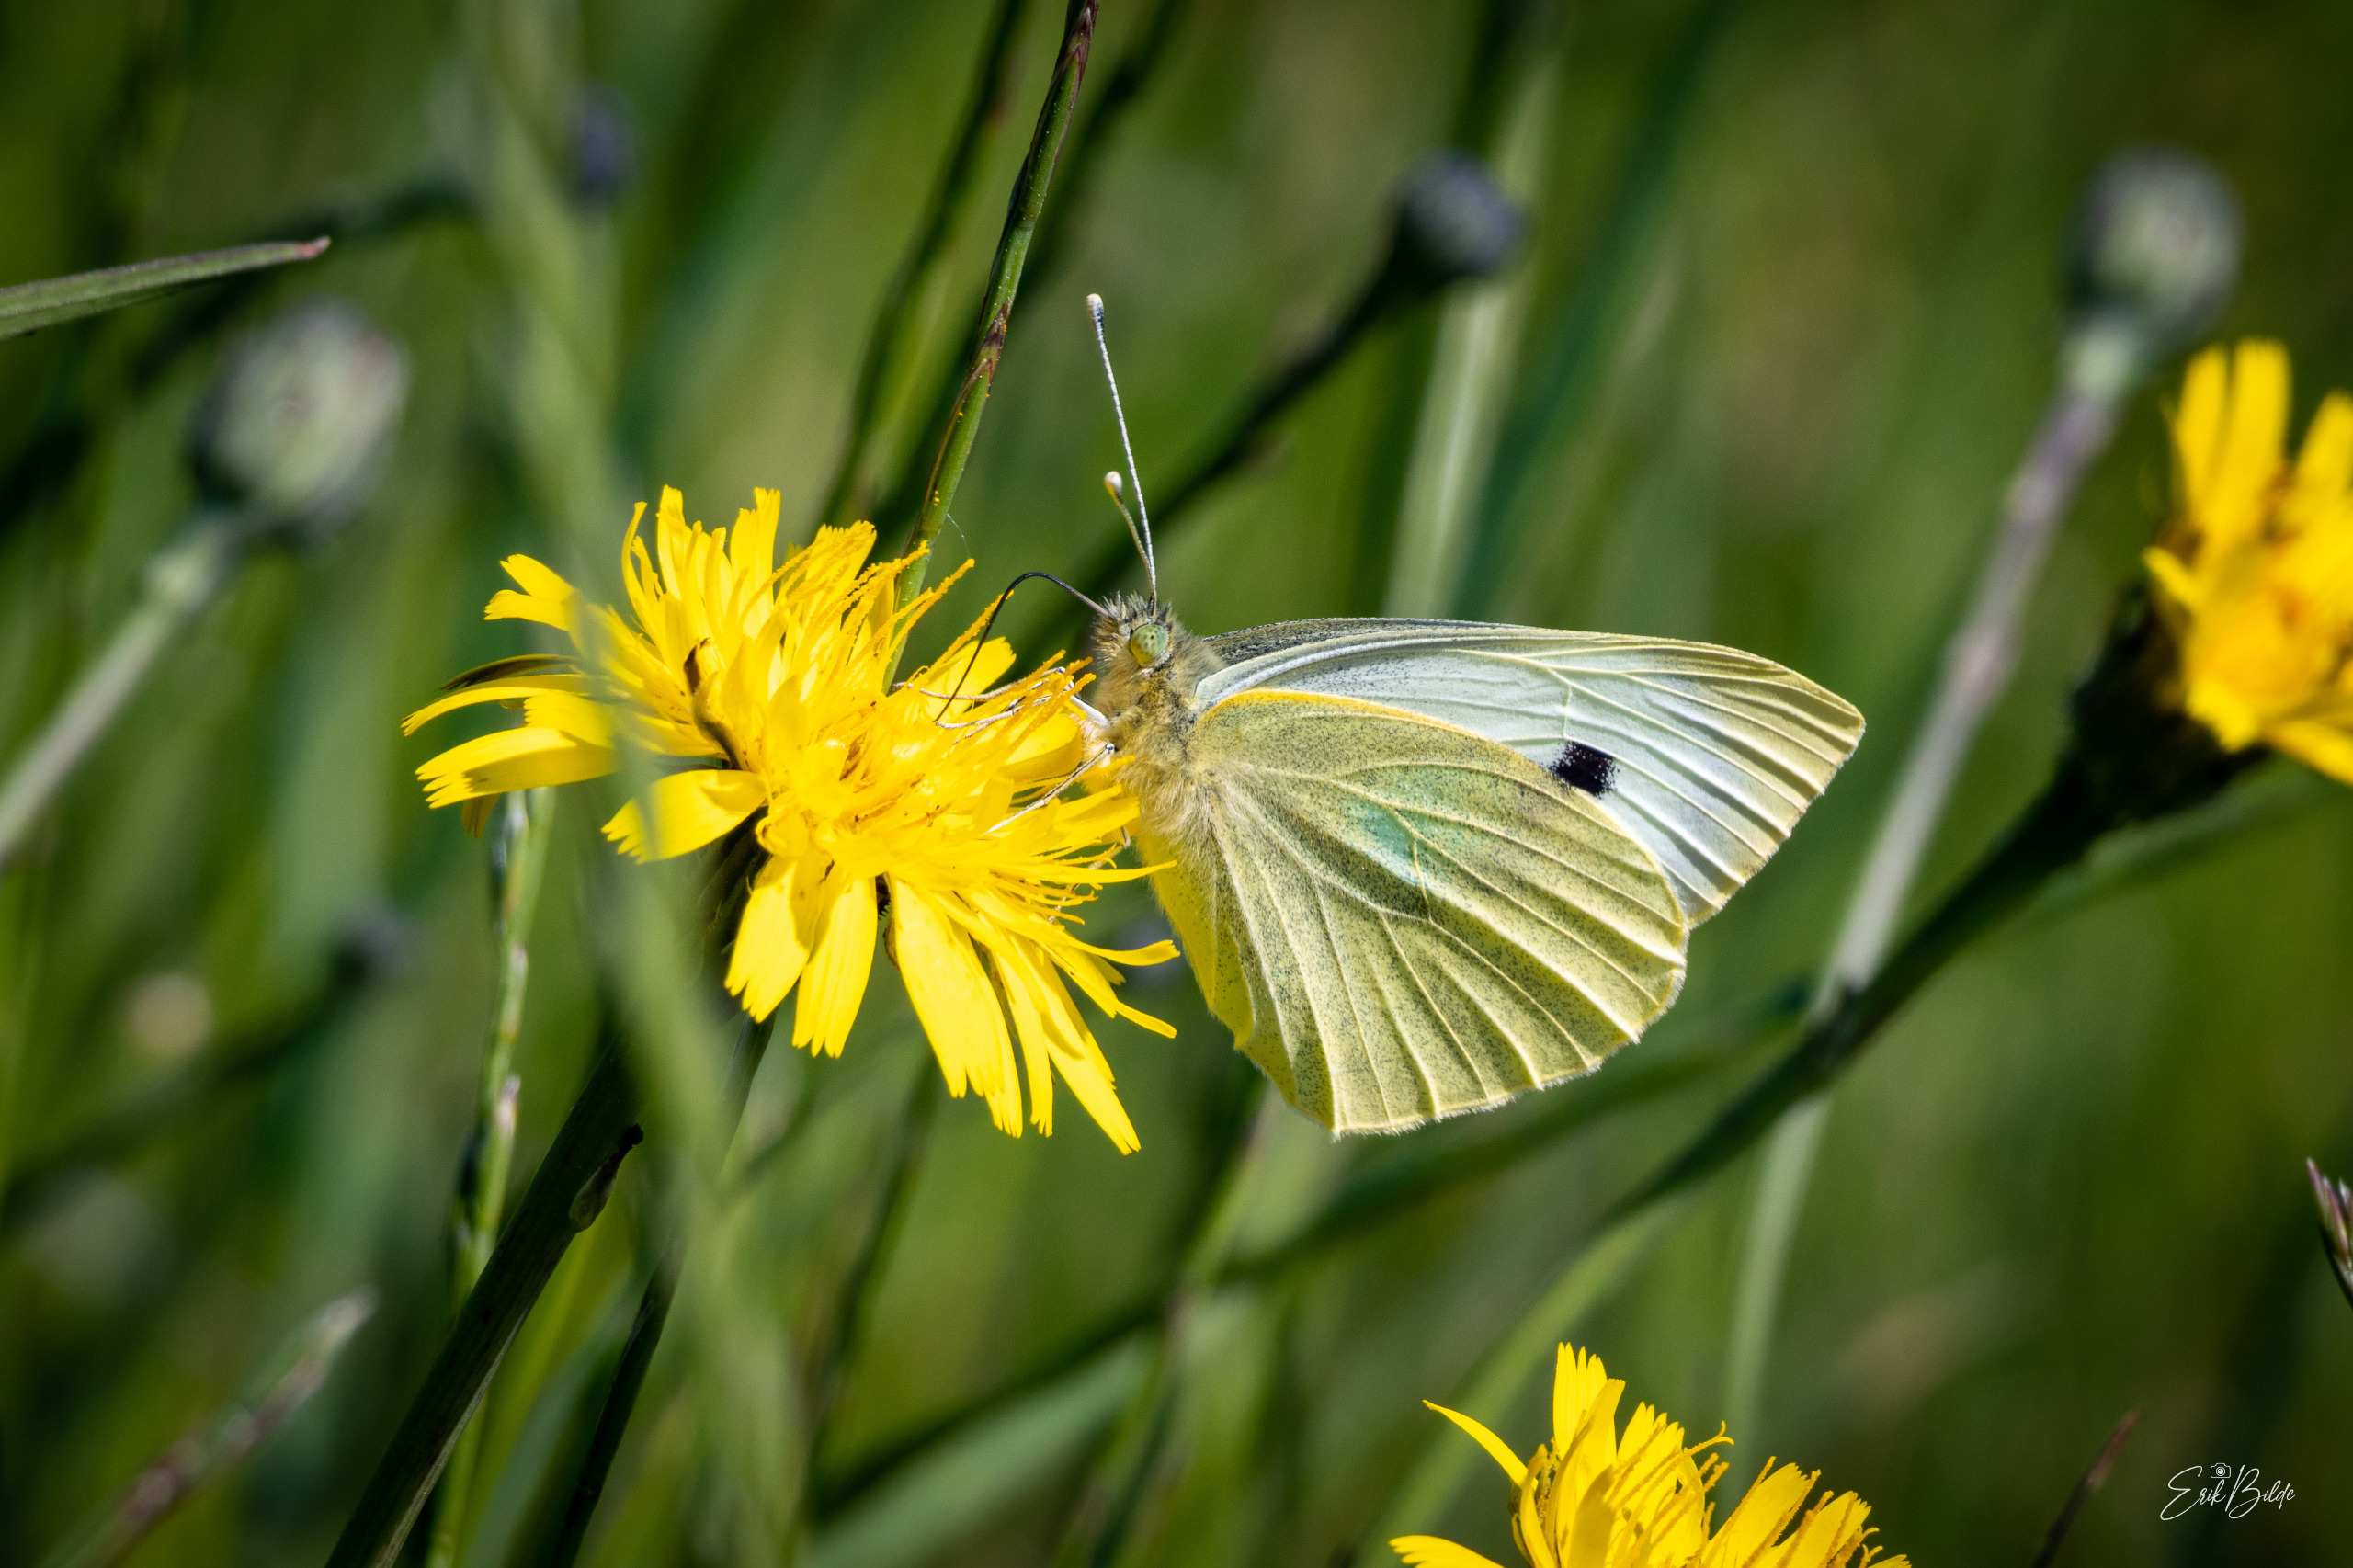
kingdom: Animalia
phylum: Arthropoda
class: Insecta
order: Lepidoptera
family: Pieridae
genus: Pieris
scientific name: Pieris brassicae
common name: Stor kålsommerfugl
